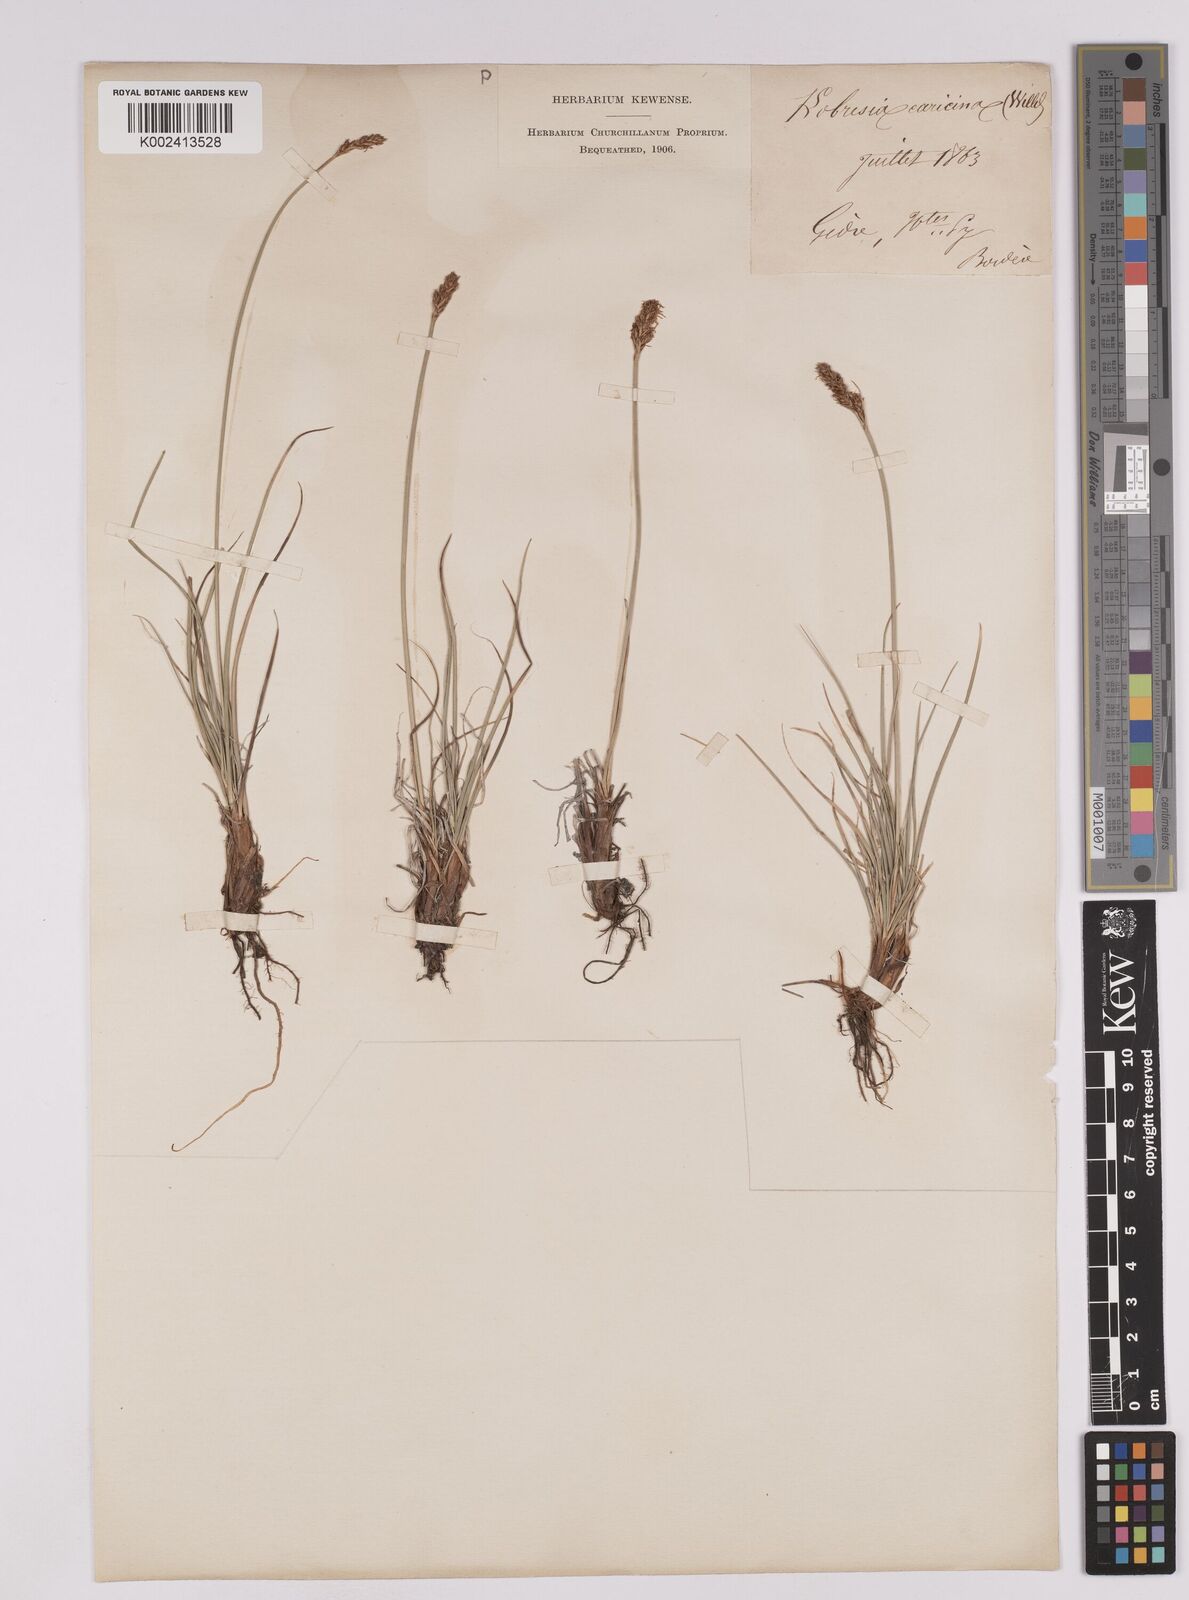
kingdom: Plantae
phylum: Tracheophyta
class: Liliopsida
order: Poales
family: Cyperaceae
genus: Carex
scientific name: Carex simpliciuscula
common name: Simple bog sedge
